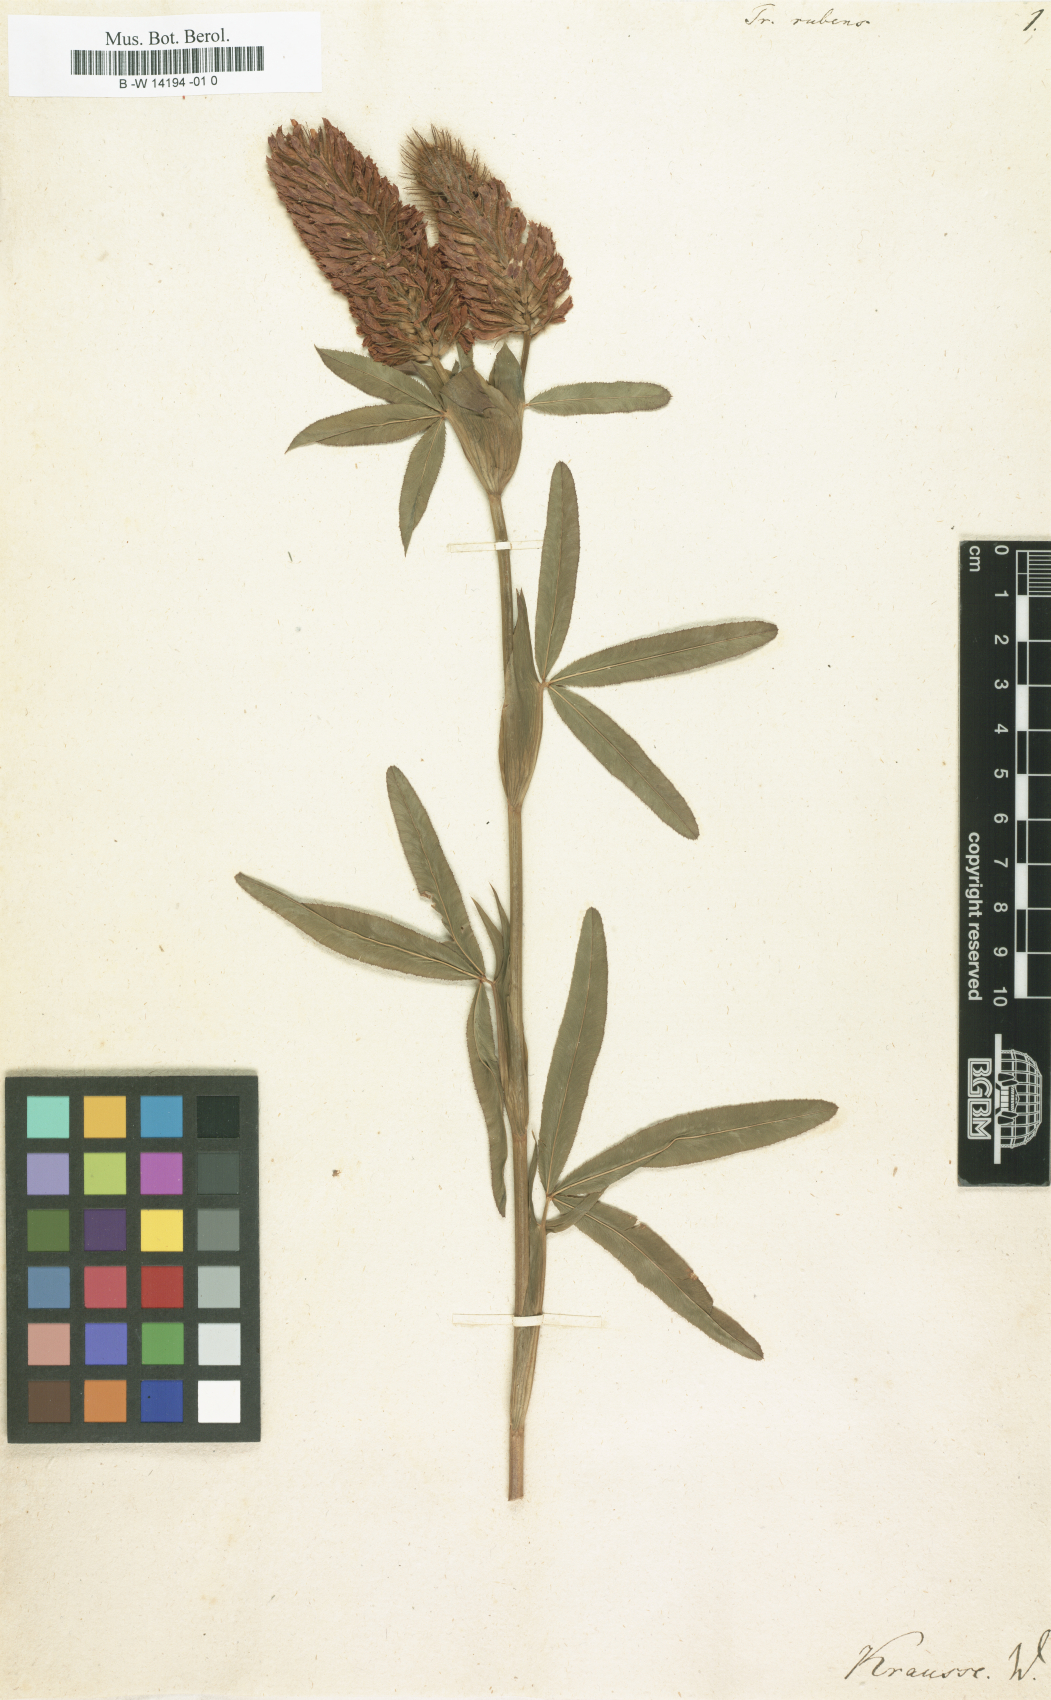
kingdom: Plantae
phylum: Tracheophyta
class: Magnoliopsida
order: Fabales
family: Fabaceae
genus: Trifolium
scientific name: Trifolium rubens
